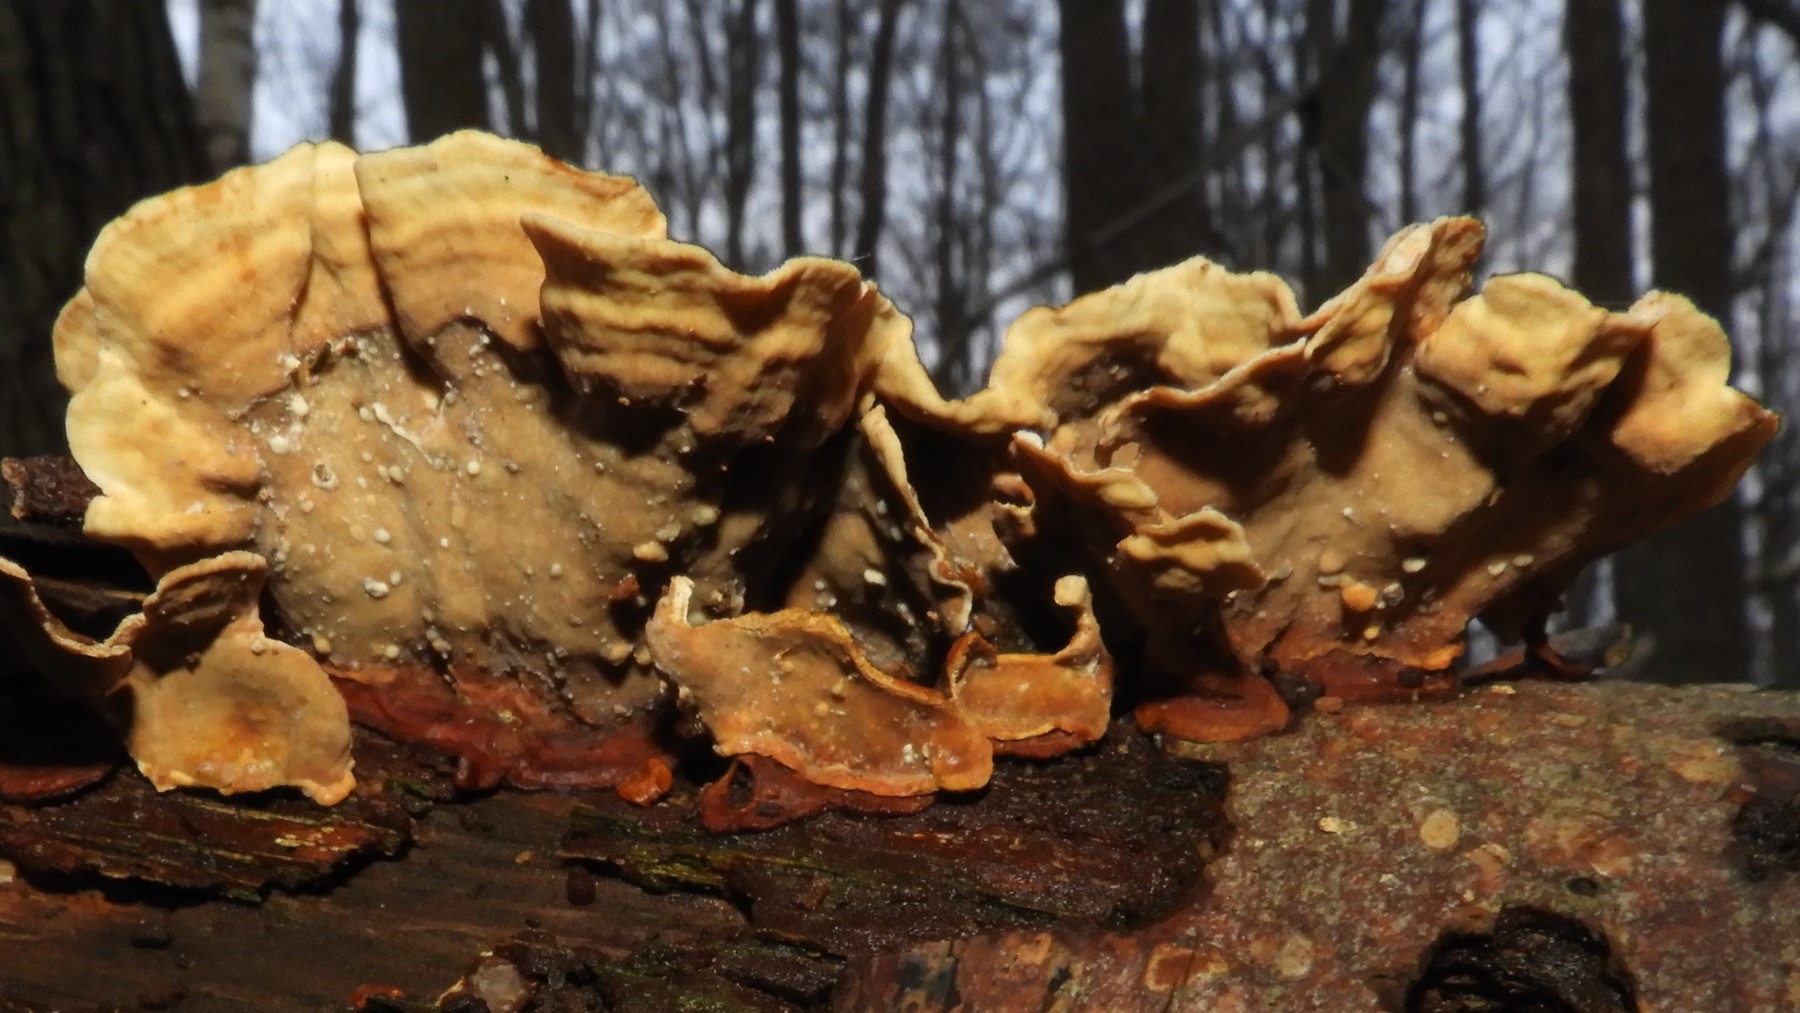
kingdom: Fungi
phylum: Basidiomycota
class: Agaricomycetes
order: Russulales
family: Stereaceae
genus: Stereum
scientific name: Stereum subtomentosum
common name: smuk lædersvamp
